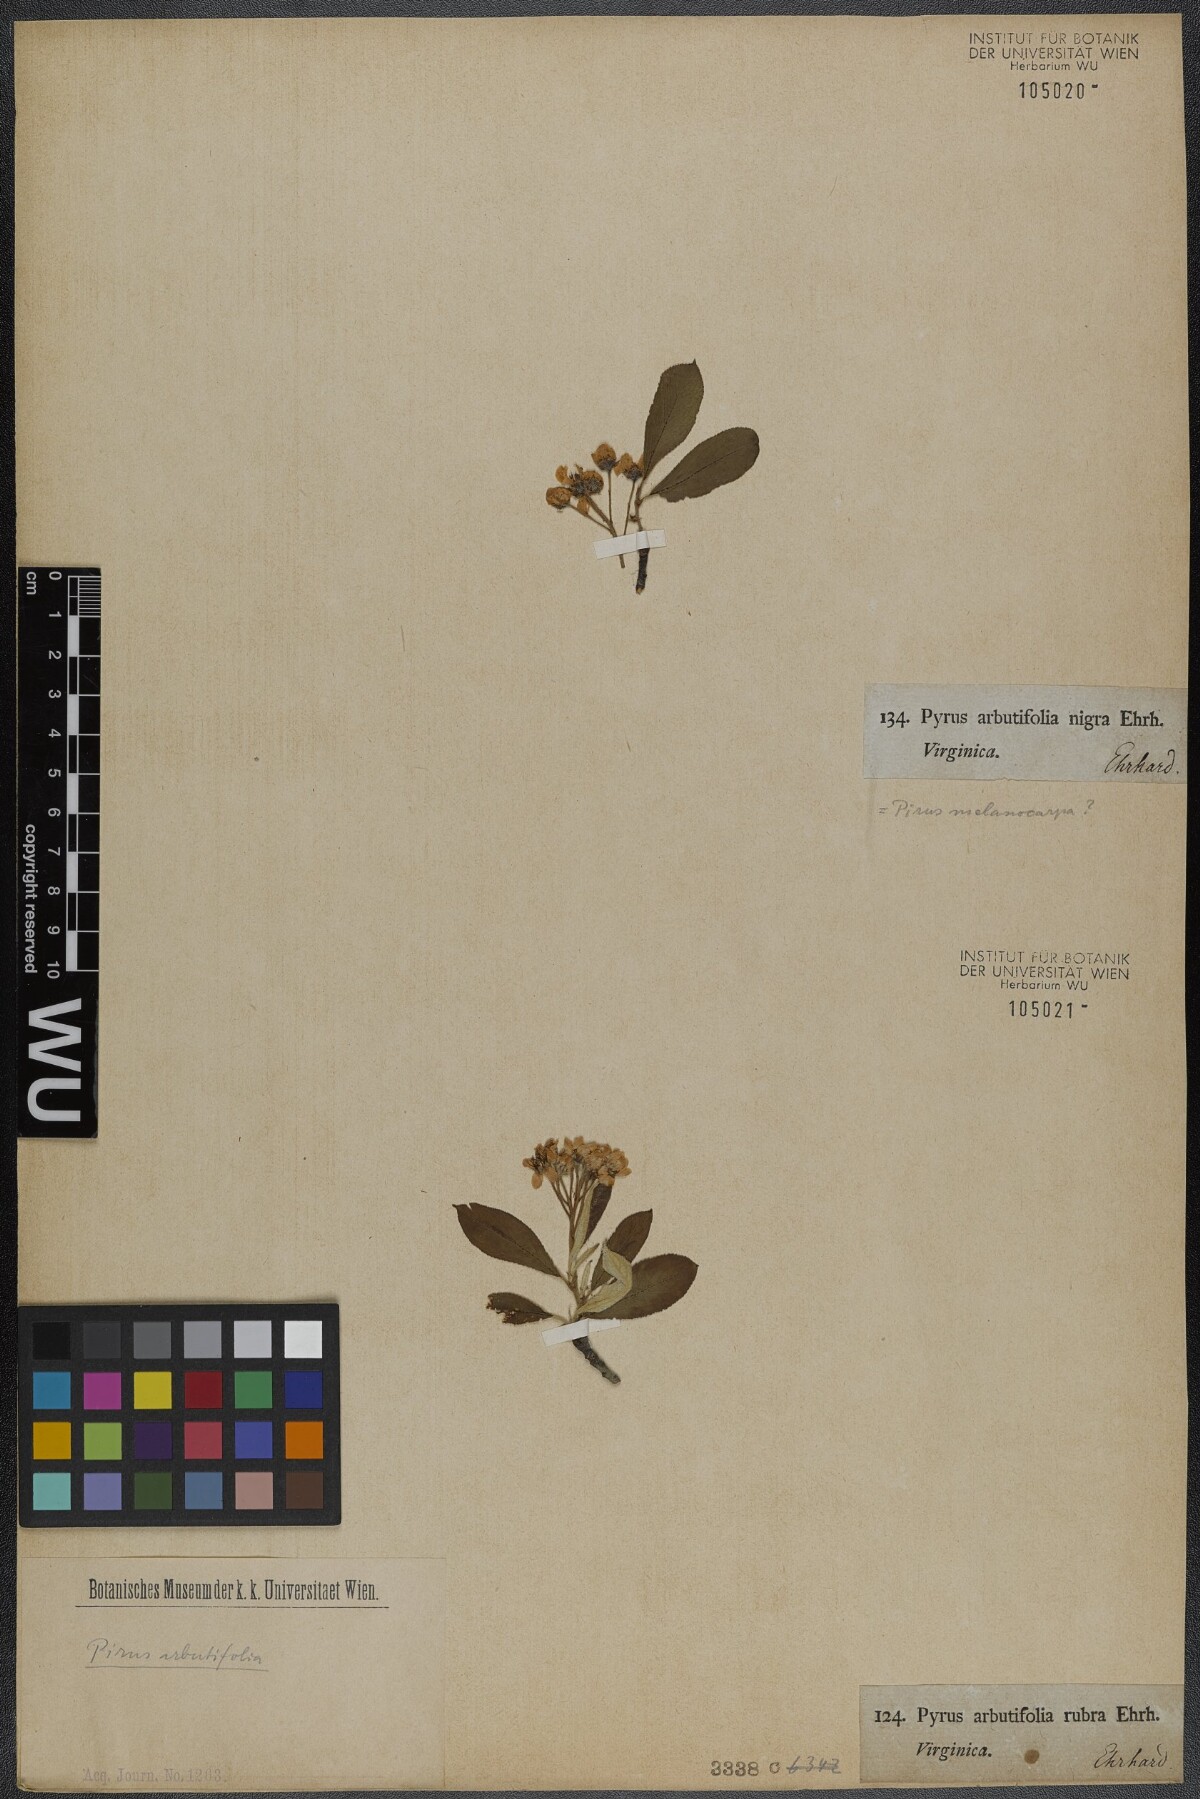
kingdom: Plantae
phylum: Tracheophyta
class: Magnoliopsida
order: Rosales
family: Rosaceae
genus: Aronia
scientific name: Aronia arbutifolia
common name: Red chokeberry
